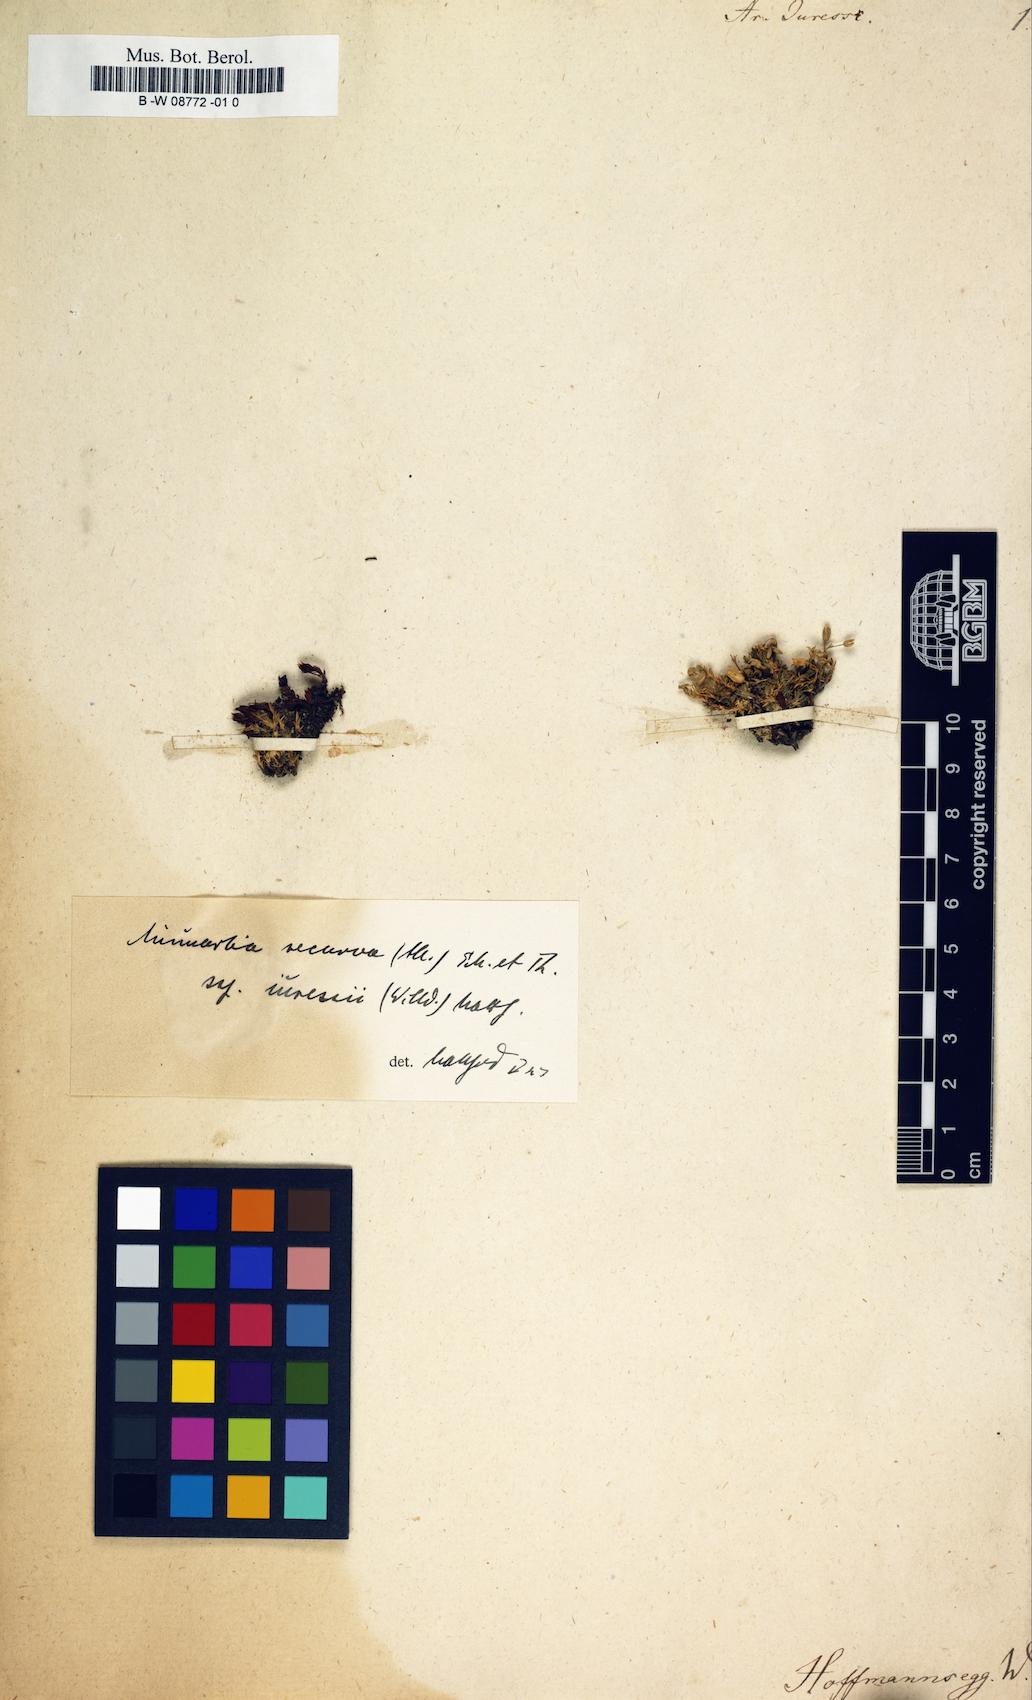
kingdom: Plantae
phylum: Tracheophyta
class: Magnoliopsida
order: Caryophyllales
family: Caryophyllaceae
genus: Minuartia
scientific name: Minuartia recurva
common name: Recurved sandwort
